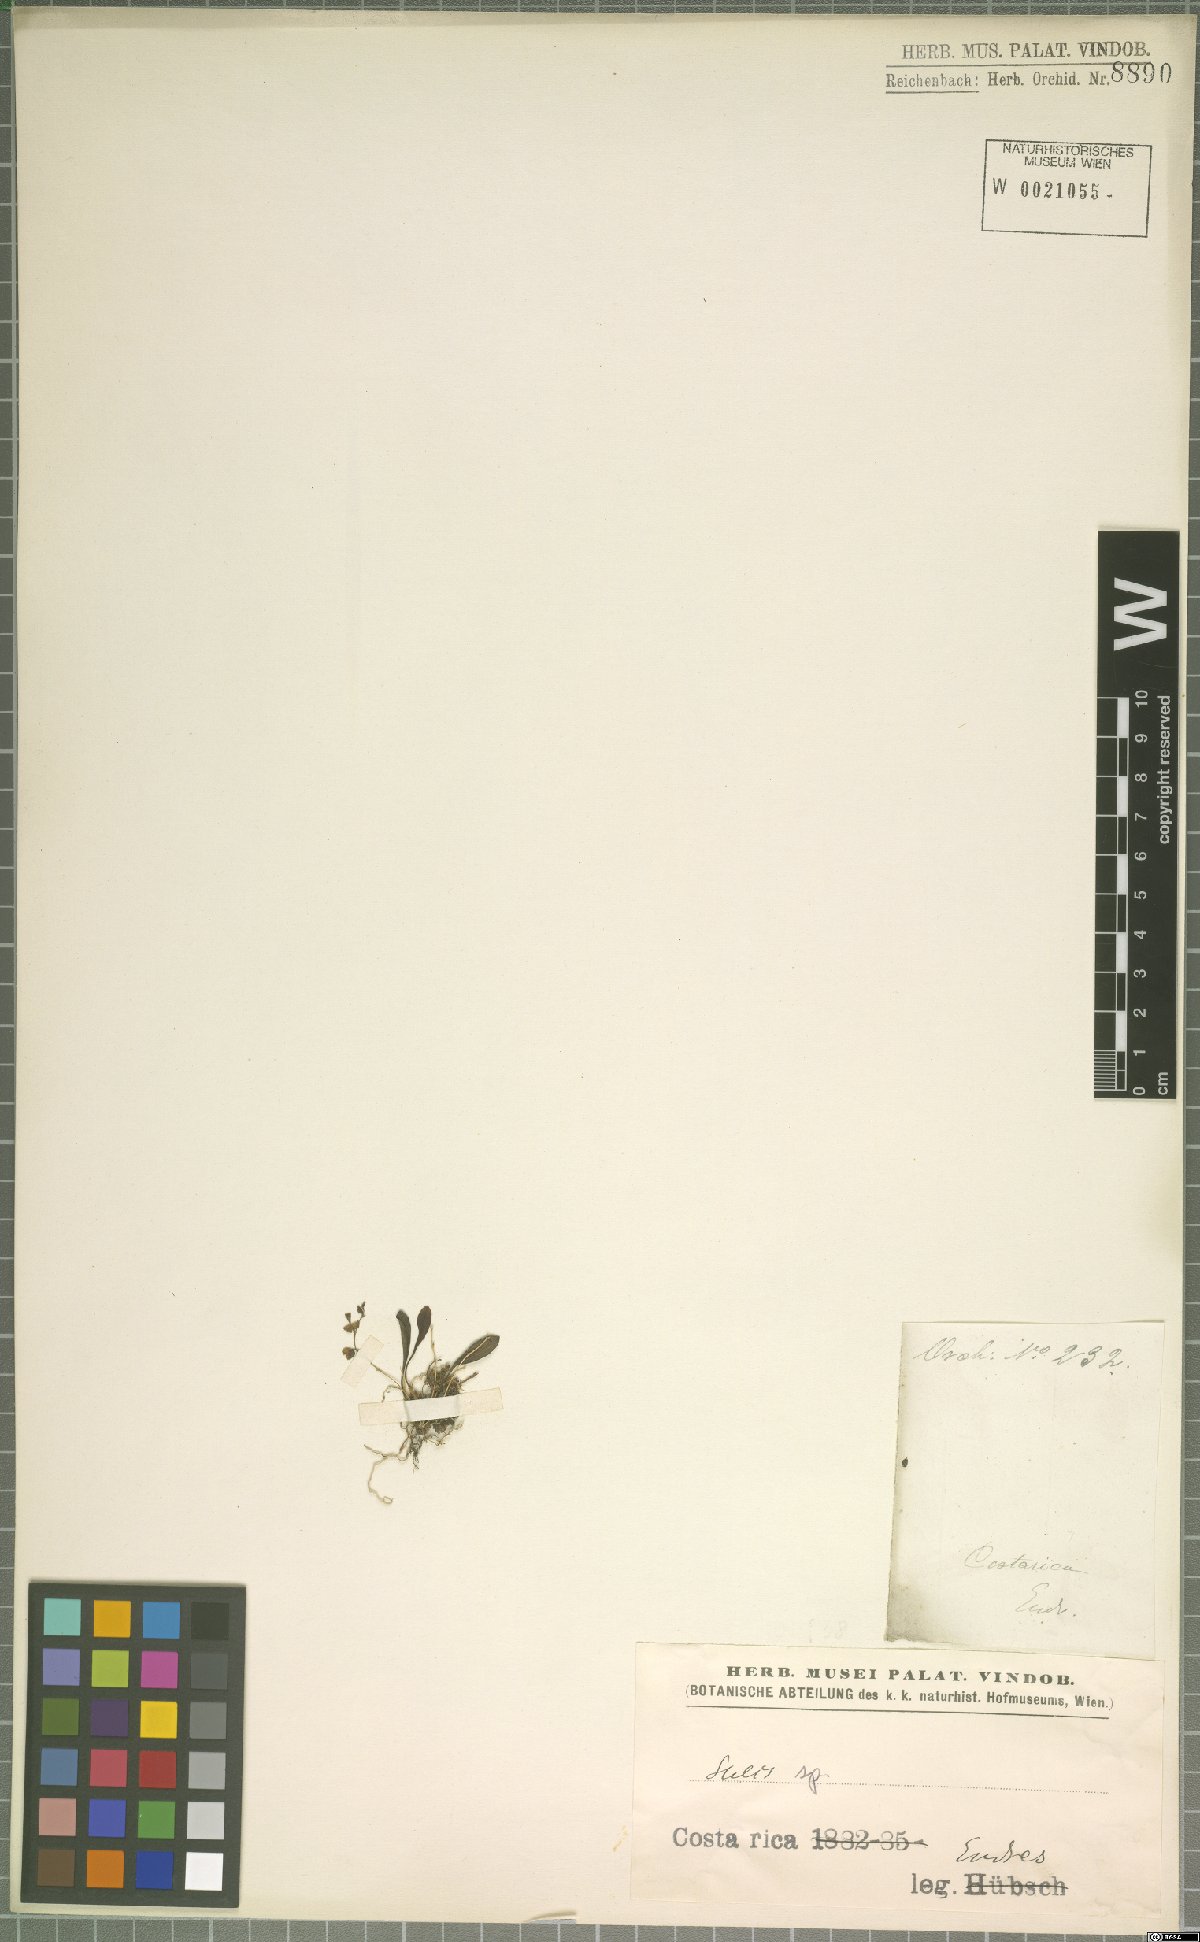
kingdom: Plantae
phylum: Tracheophyta
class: Liliopsida
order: Asparagales
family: Orchidaceae
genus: Stelis
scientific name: Stelis
